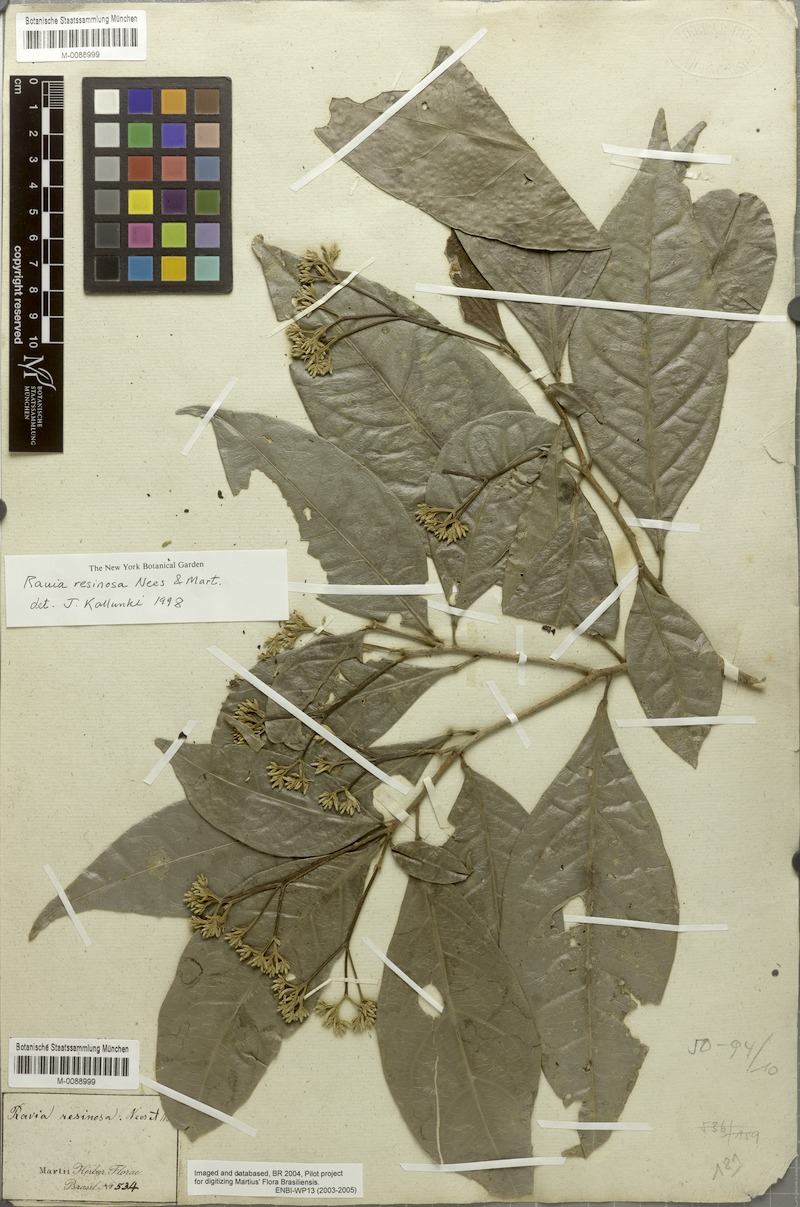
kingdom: Plantae
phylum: Tracheophyta
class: Magnoliopsida
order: Sapindales
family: Rutaceae
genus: Rauia
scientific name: Rauia resinosa
